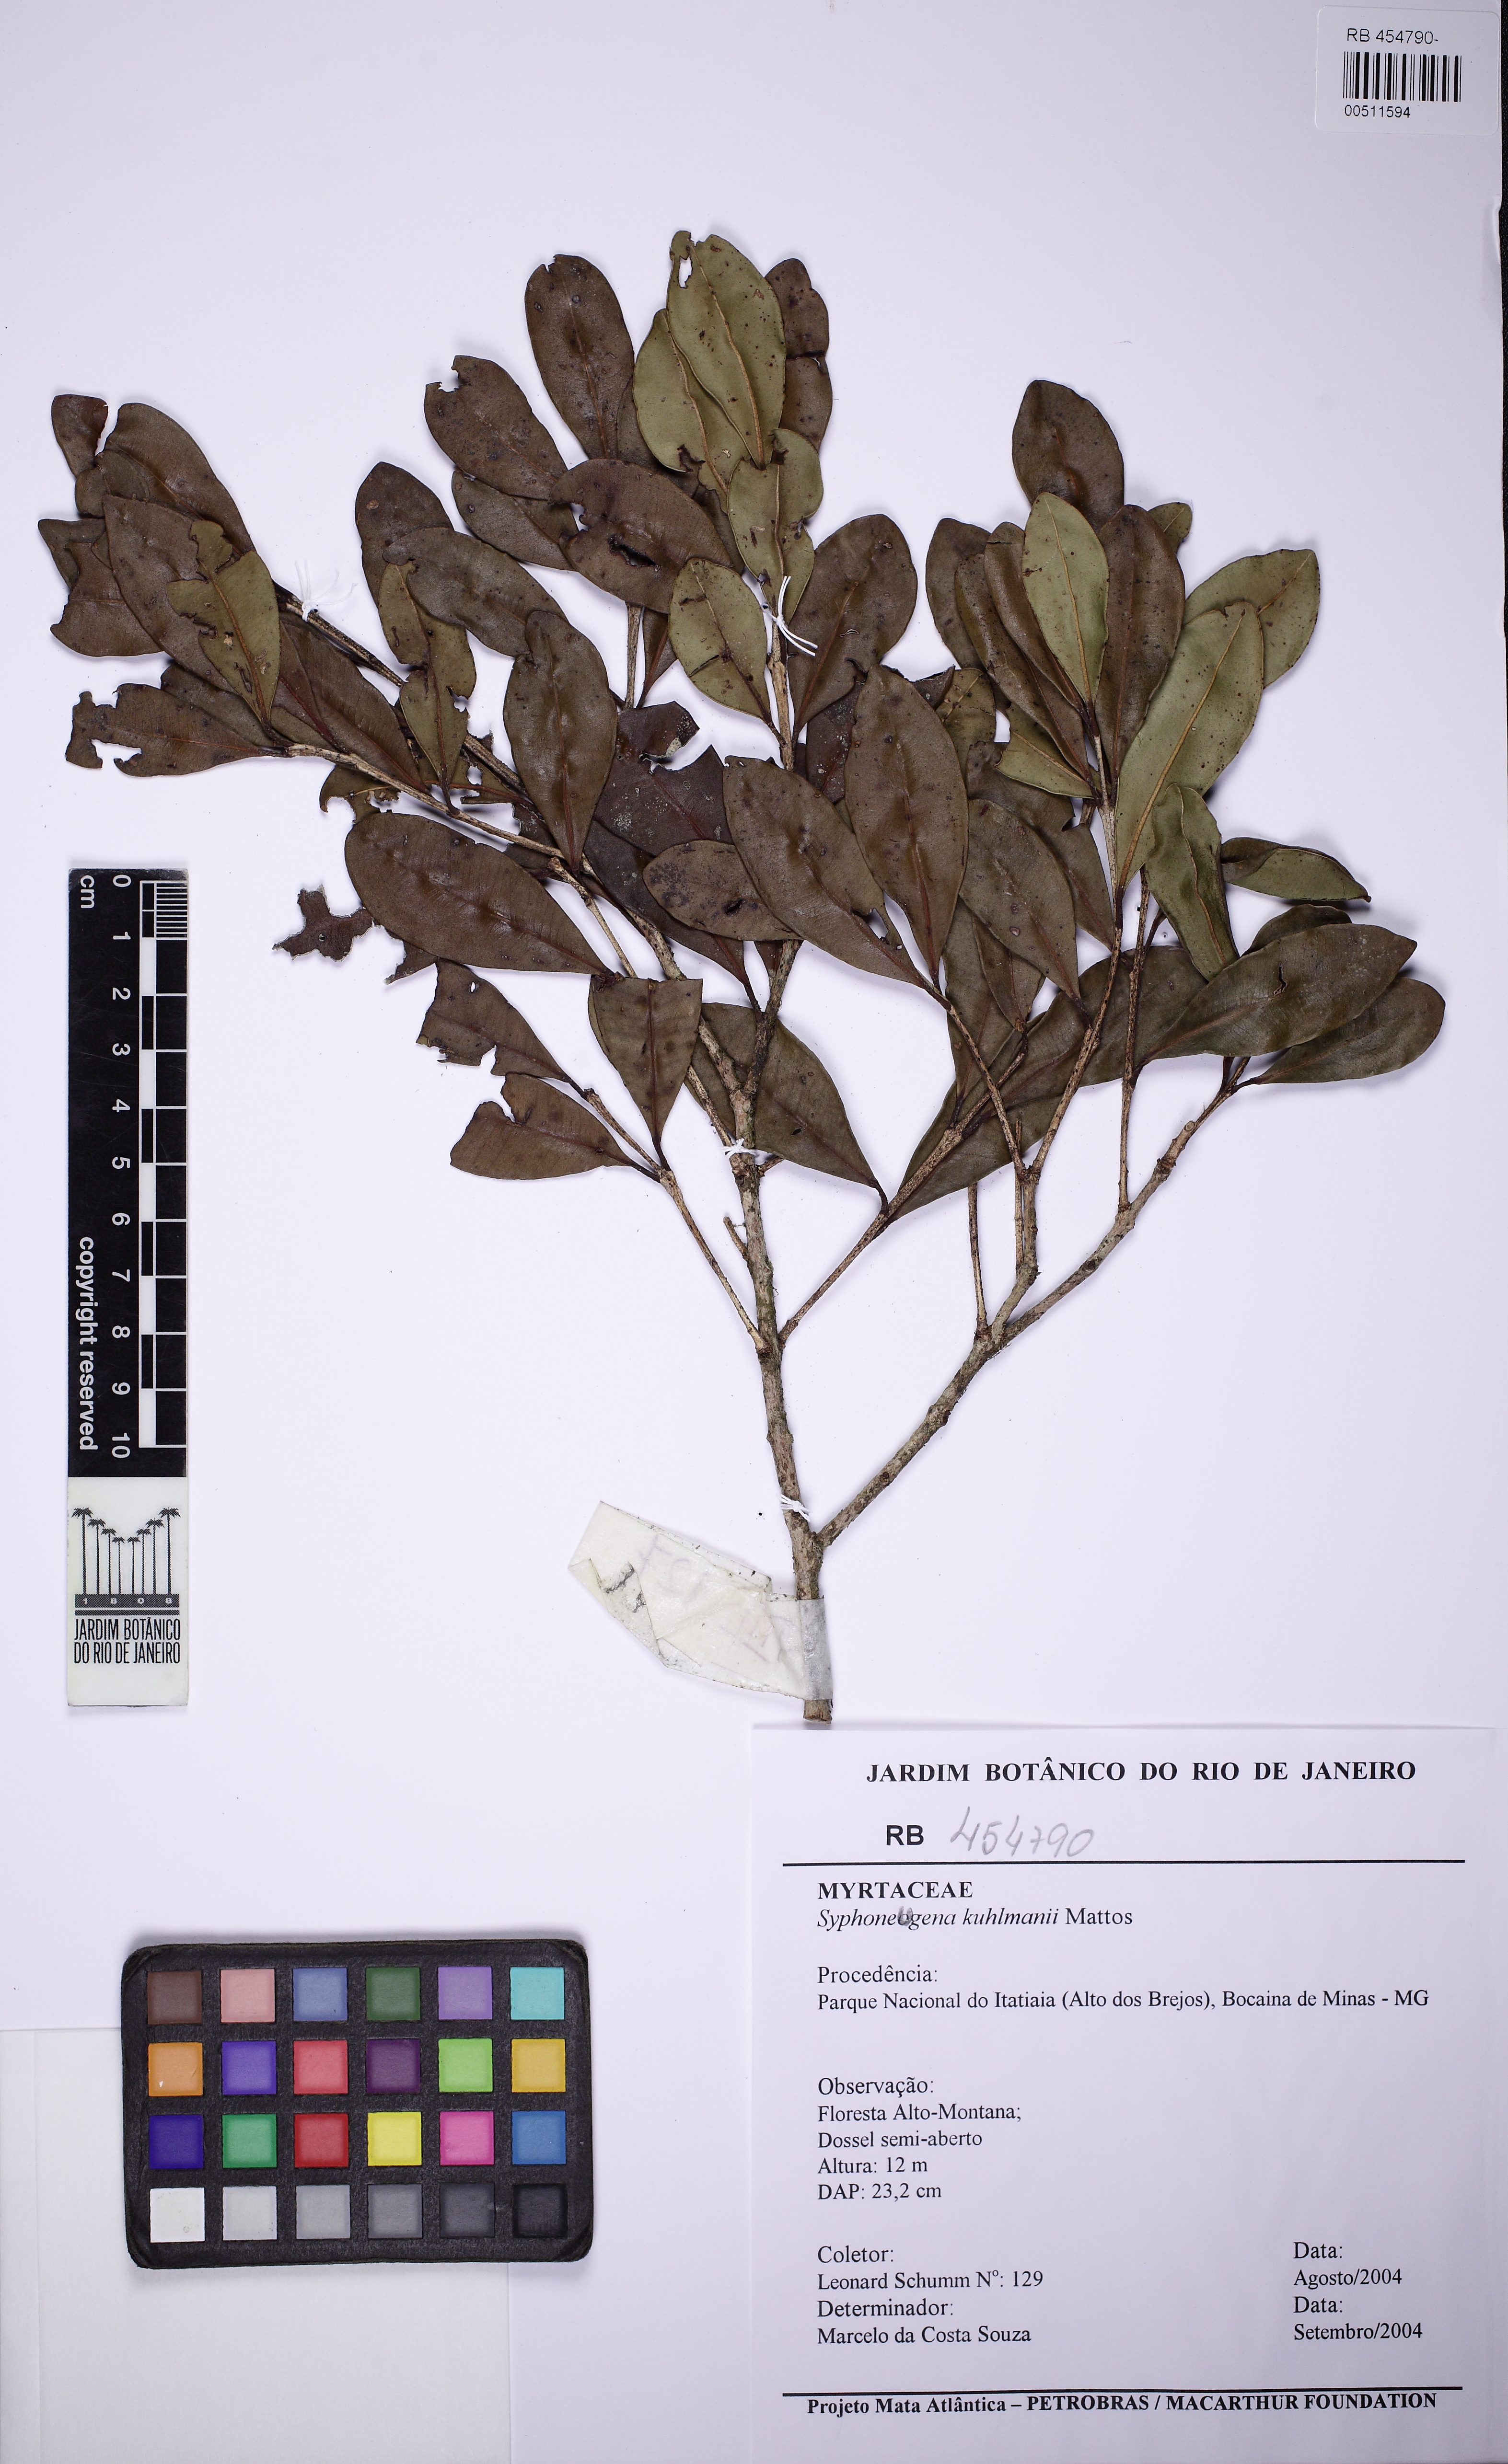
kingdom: Plantae
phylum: Tracheophyta
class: Magnoliopsida
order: Myrtales
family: Myrtaceae
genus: Siphoneugena
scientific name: Siphoneugena kuhlmannii
